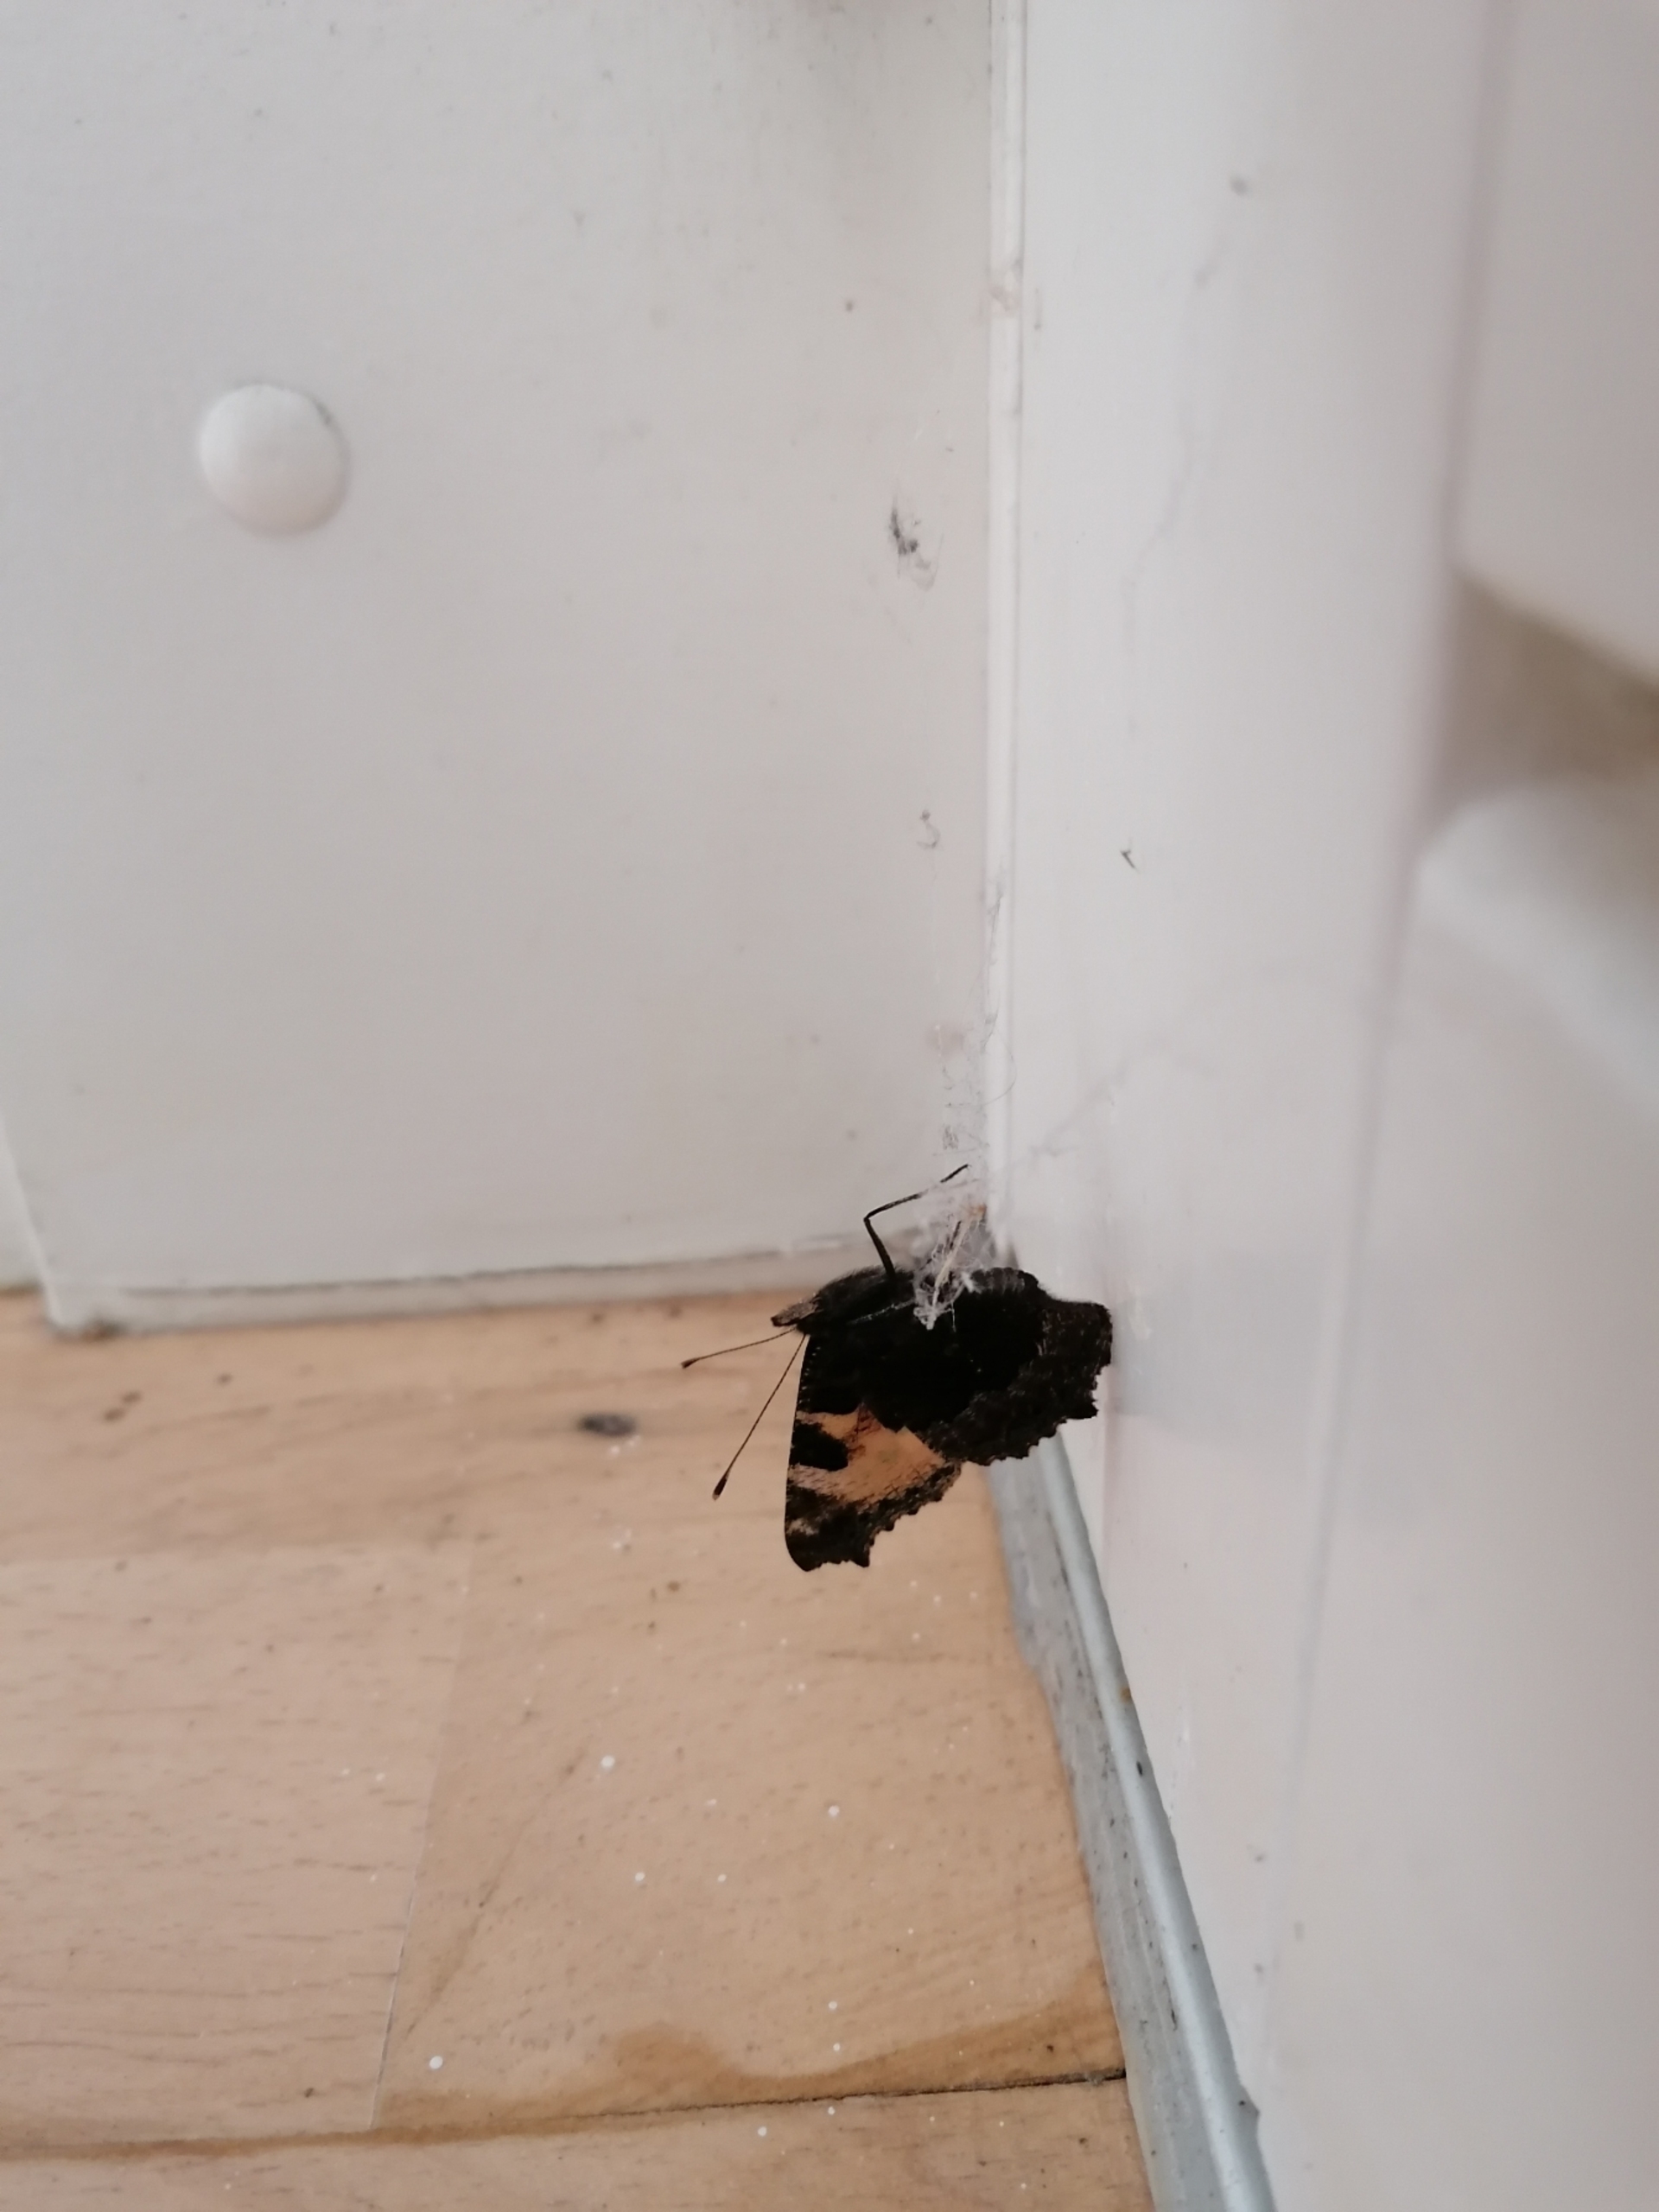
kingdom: Animalia
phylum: Arthropoda
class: Insecta
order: Lepidoptera
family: Nymphalidae
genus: Aglais
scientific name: Aglais urticae
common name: Nældens takvinge
